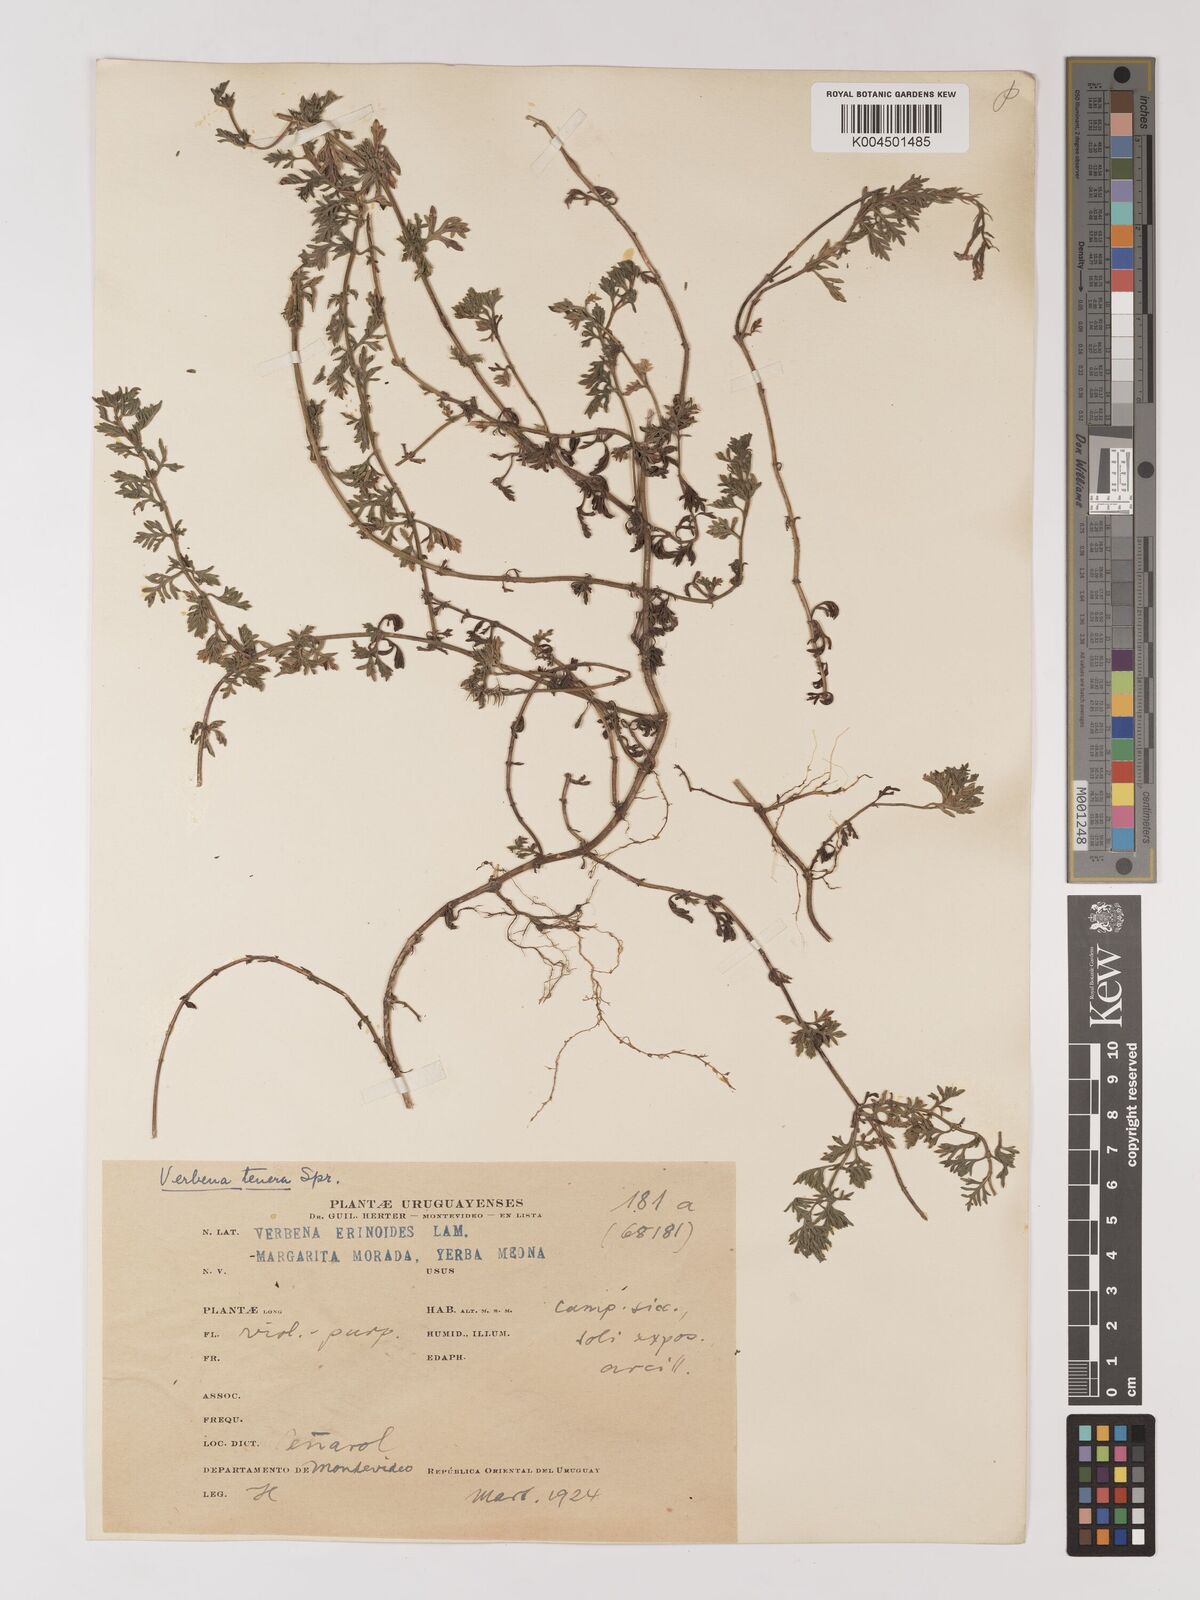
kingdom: Plantae
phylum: Tracheophyta
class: Magnoliopsida
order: Lamiales
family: Verbenaceae
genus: Verbena
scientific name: Verbena tenera
